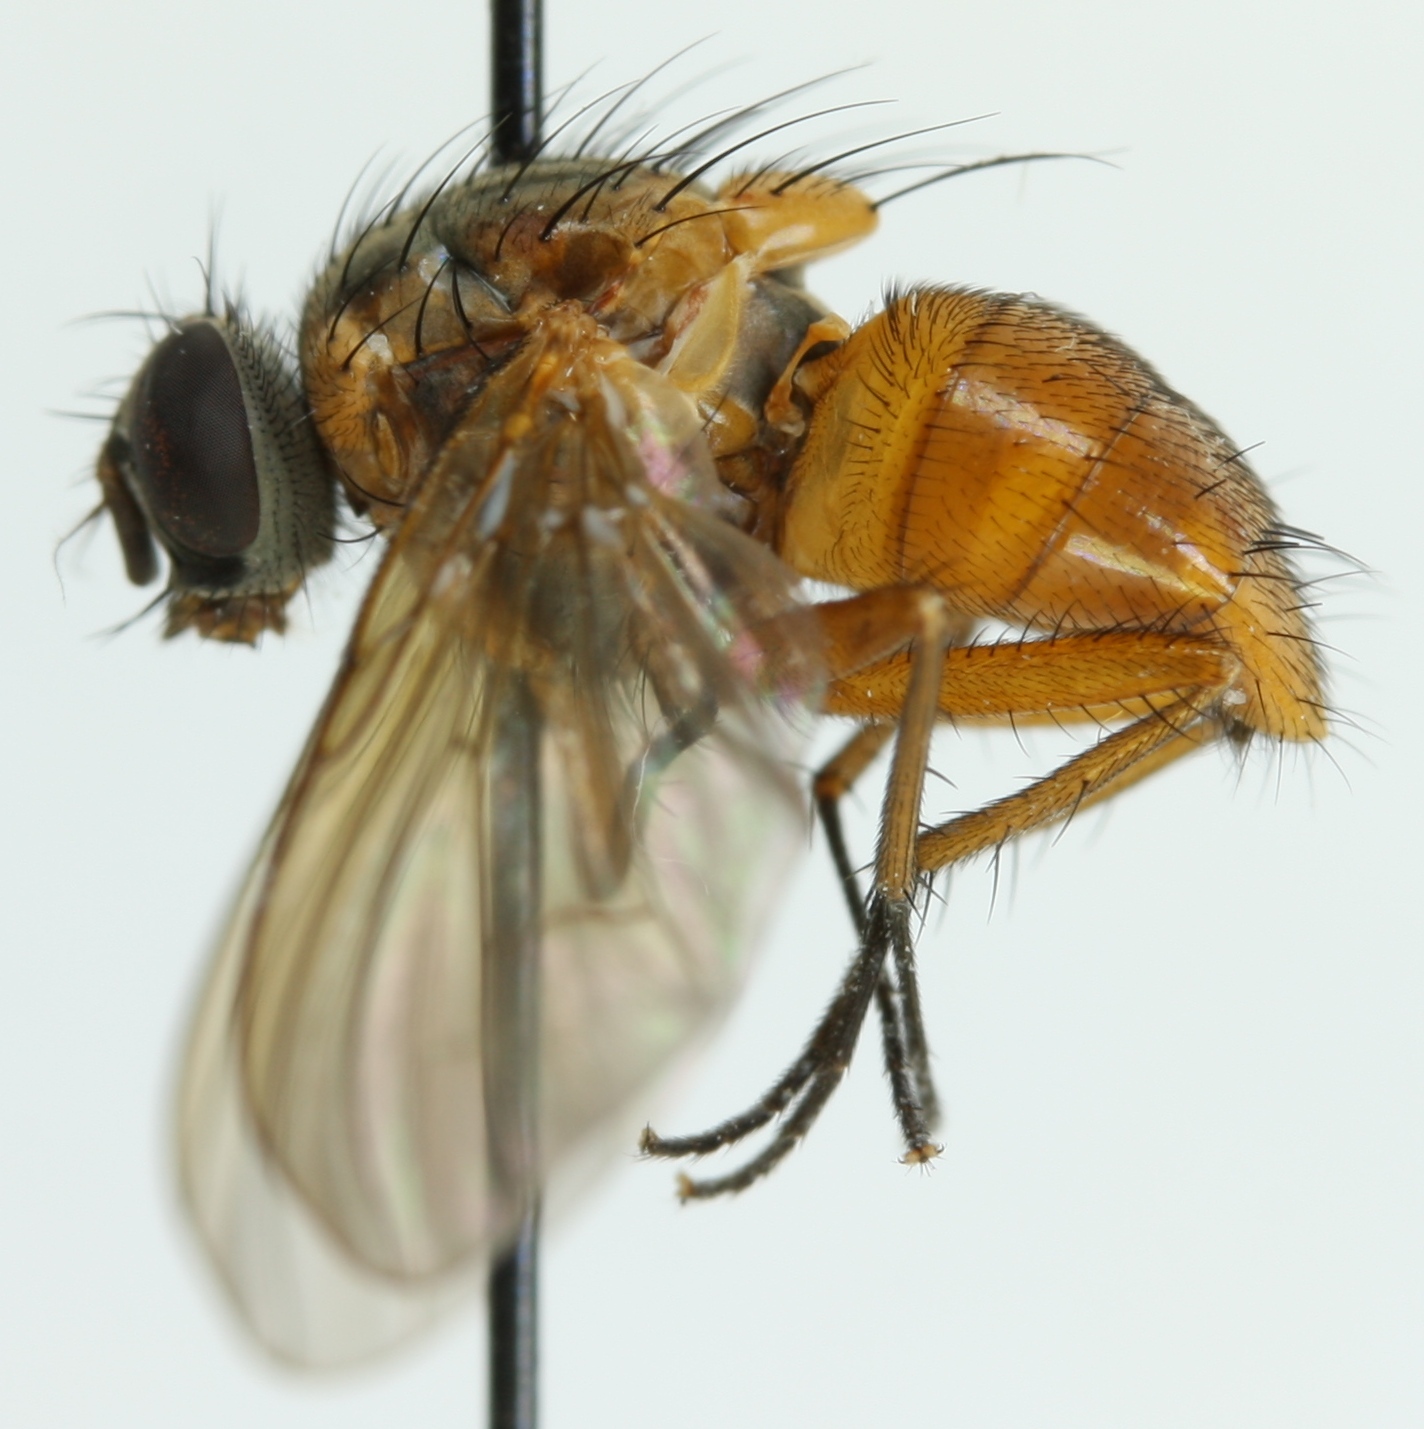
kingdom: Animalia
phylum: Arthropoda
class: Insecta
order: Diptera
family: Muscidae
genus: Phaonia
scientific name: Phaonia rufiventris
